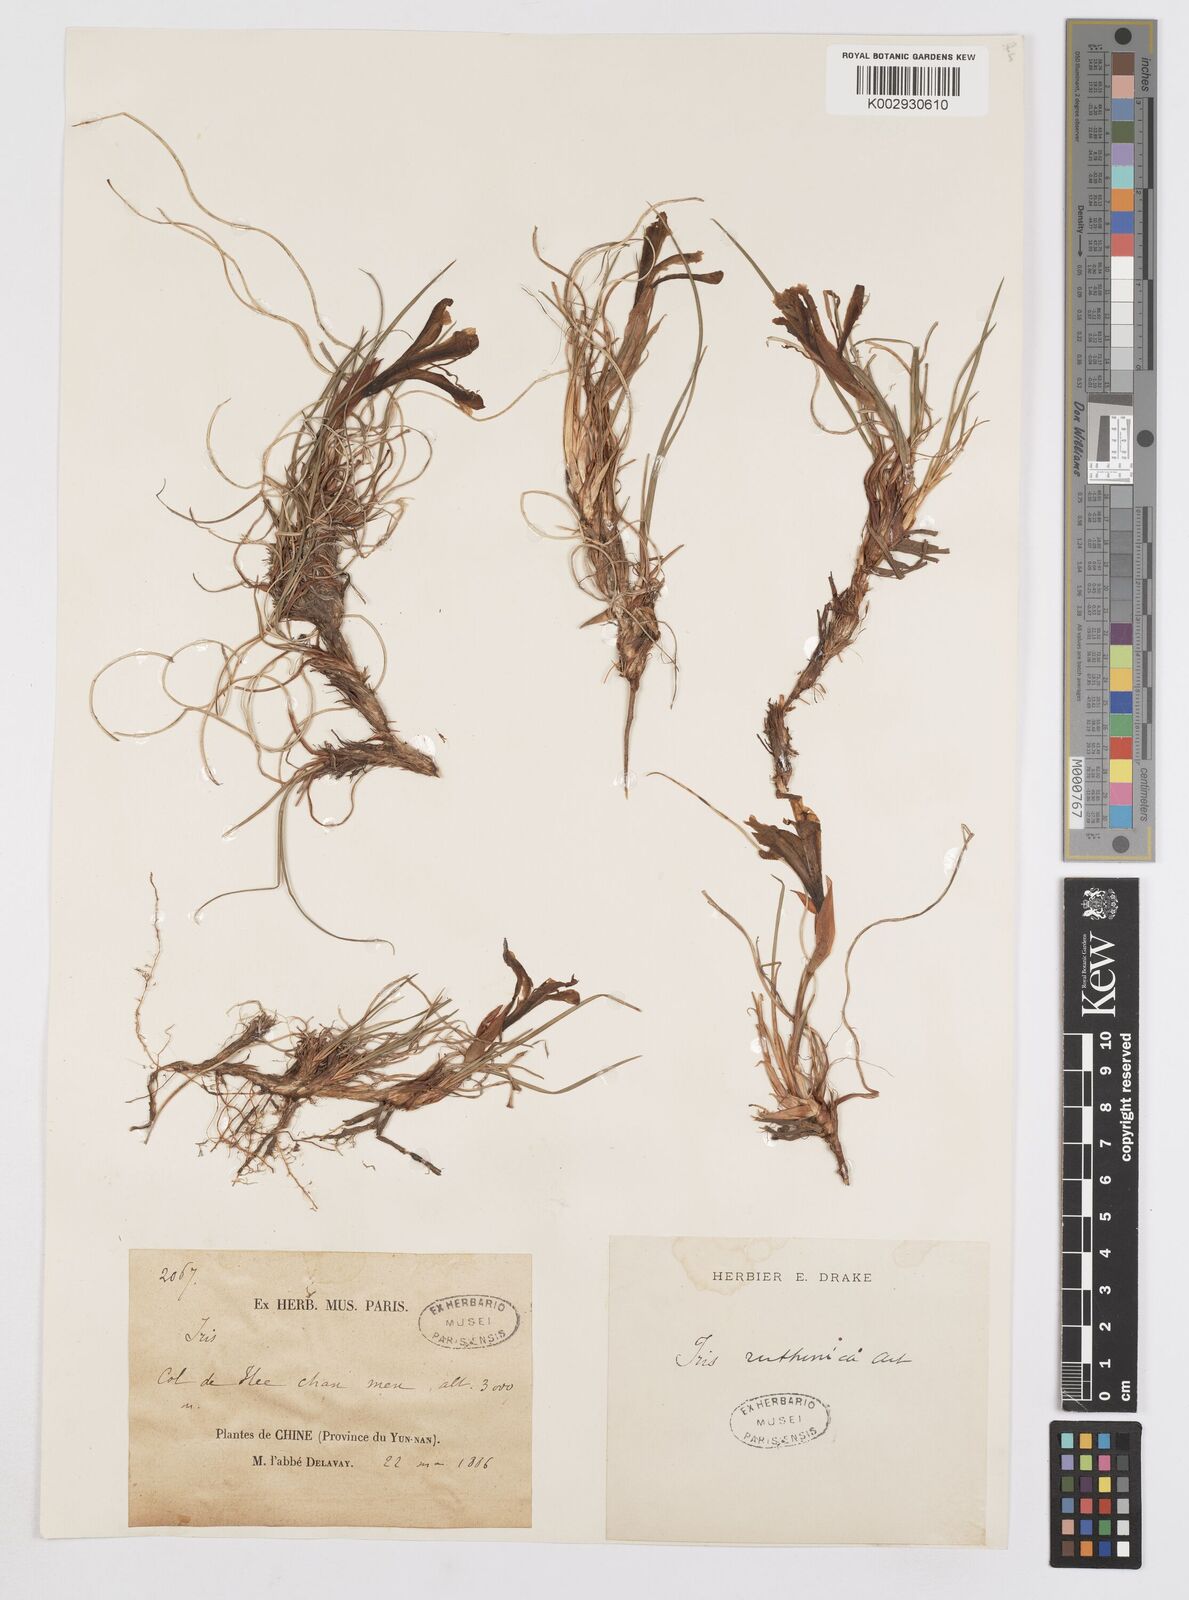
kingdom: Plantae
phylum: Tracheophyta
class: Liliopsida
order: Asparagales
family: Iridaceae
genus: Iris
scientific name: Iris ruthenica
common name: Purple-bract iris
